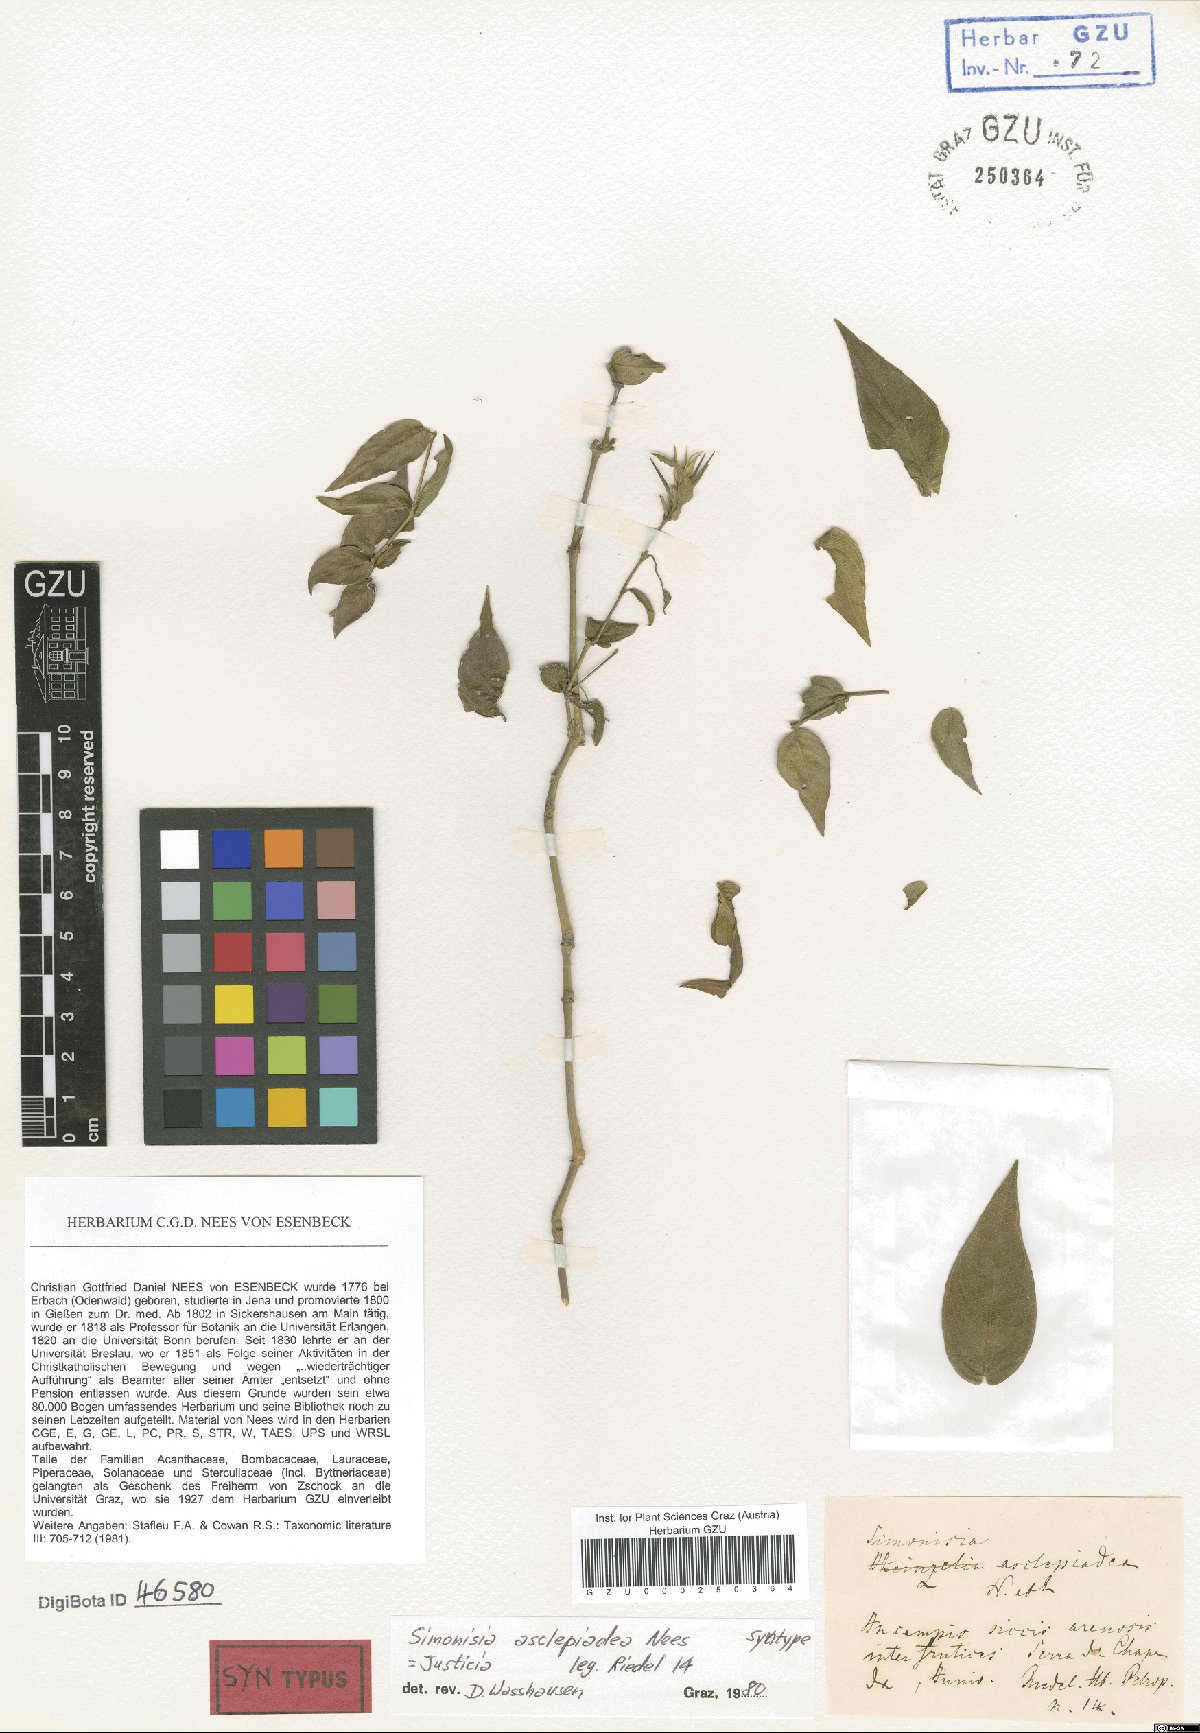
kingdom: Plantae
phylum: Tracheophyta
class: Magnoliopsida
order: Lamiales
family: Acanthaceae
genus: Justicia
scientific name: Justicia asclepiadea
